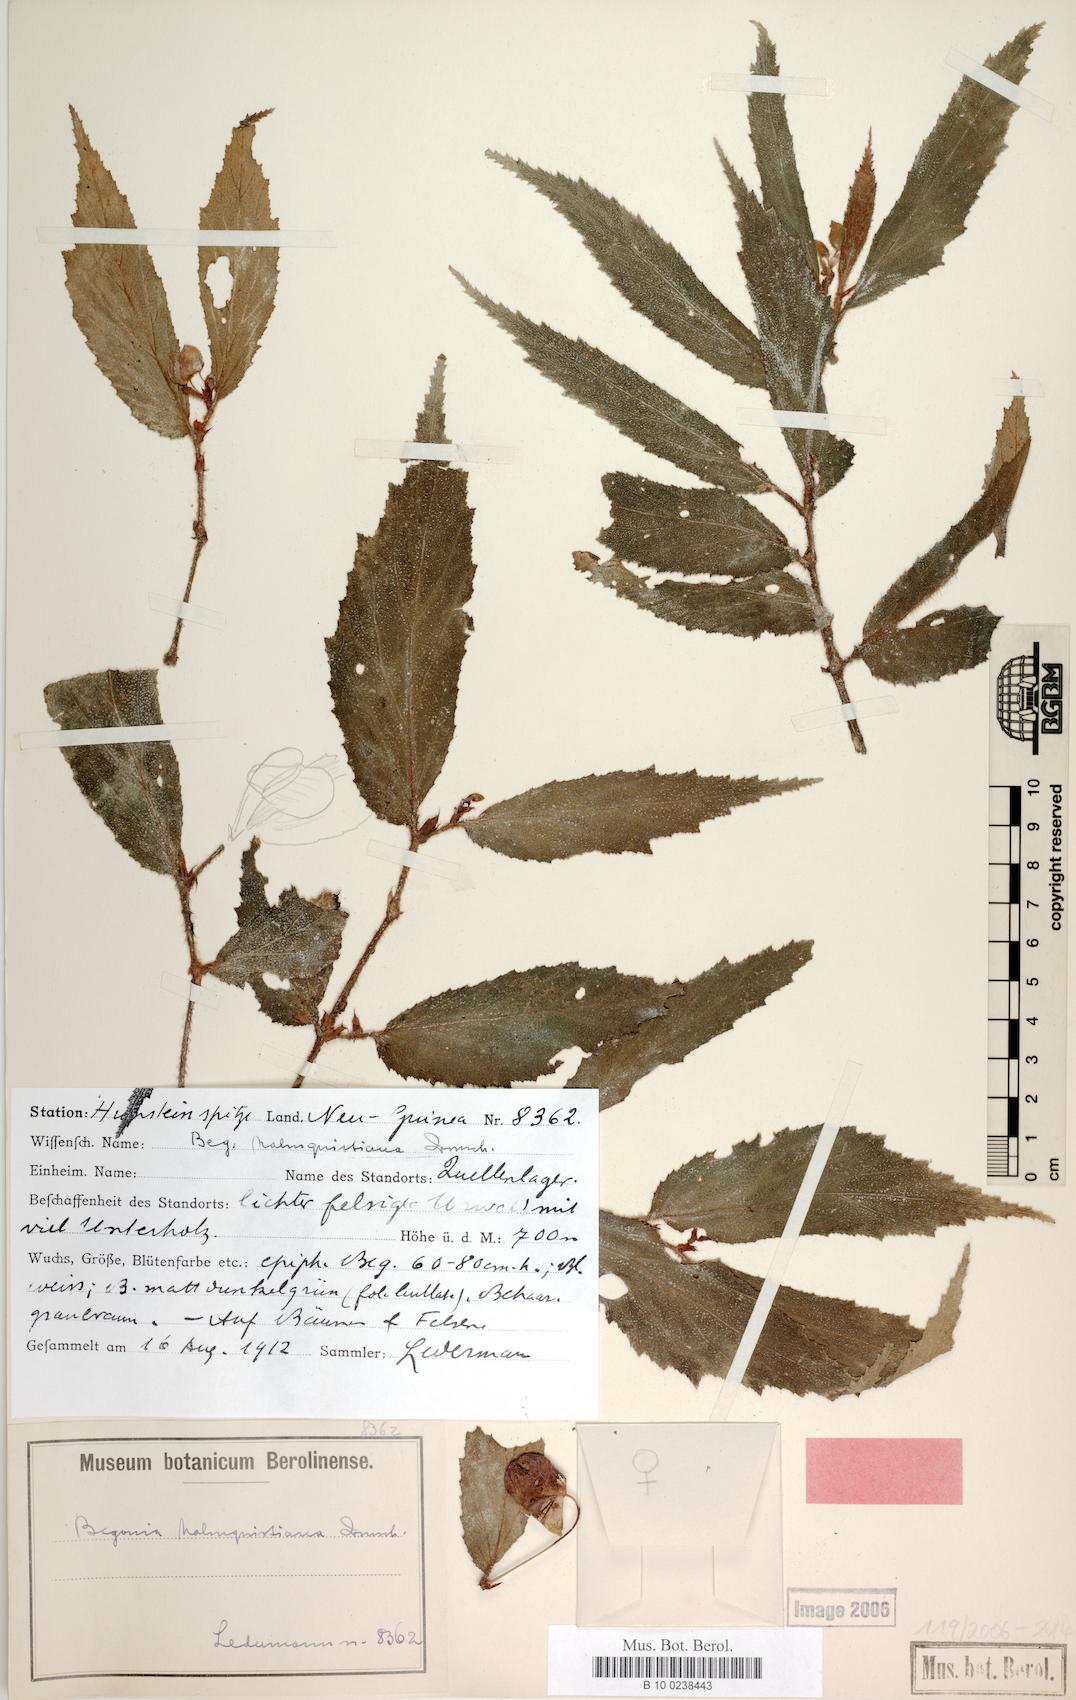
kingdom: Plantae
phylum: Tracheophyta
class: Magnoliopsida
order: Cucurbitales
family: Begoniaceae
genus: Begonia
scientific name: Begonia malmquistiana
